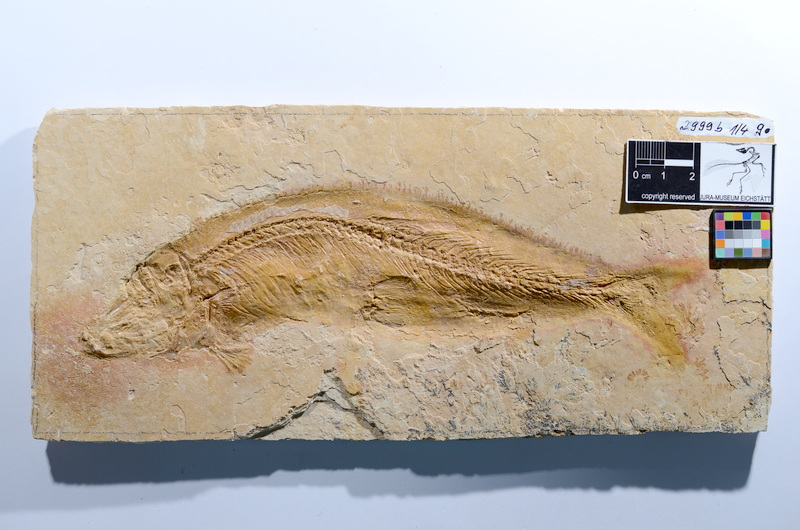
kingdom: Animalia
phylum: Chordata
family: Ascalaboidae
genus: Tharsis
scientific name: Tharsis dubius
